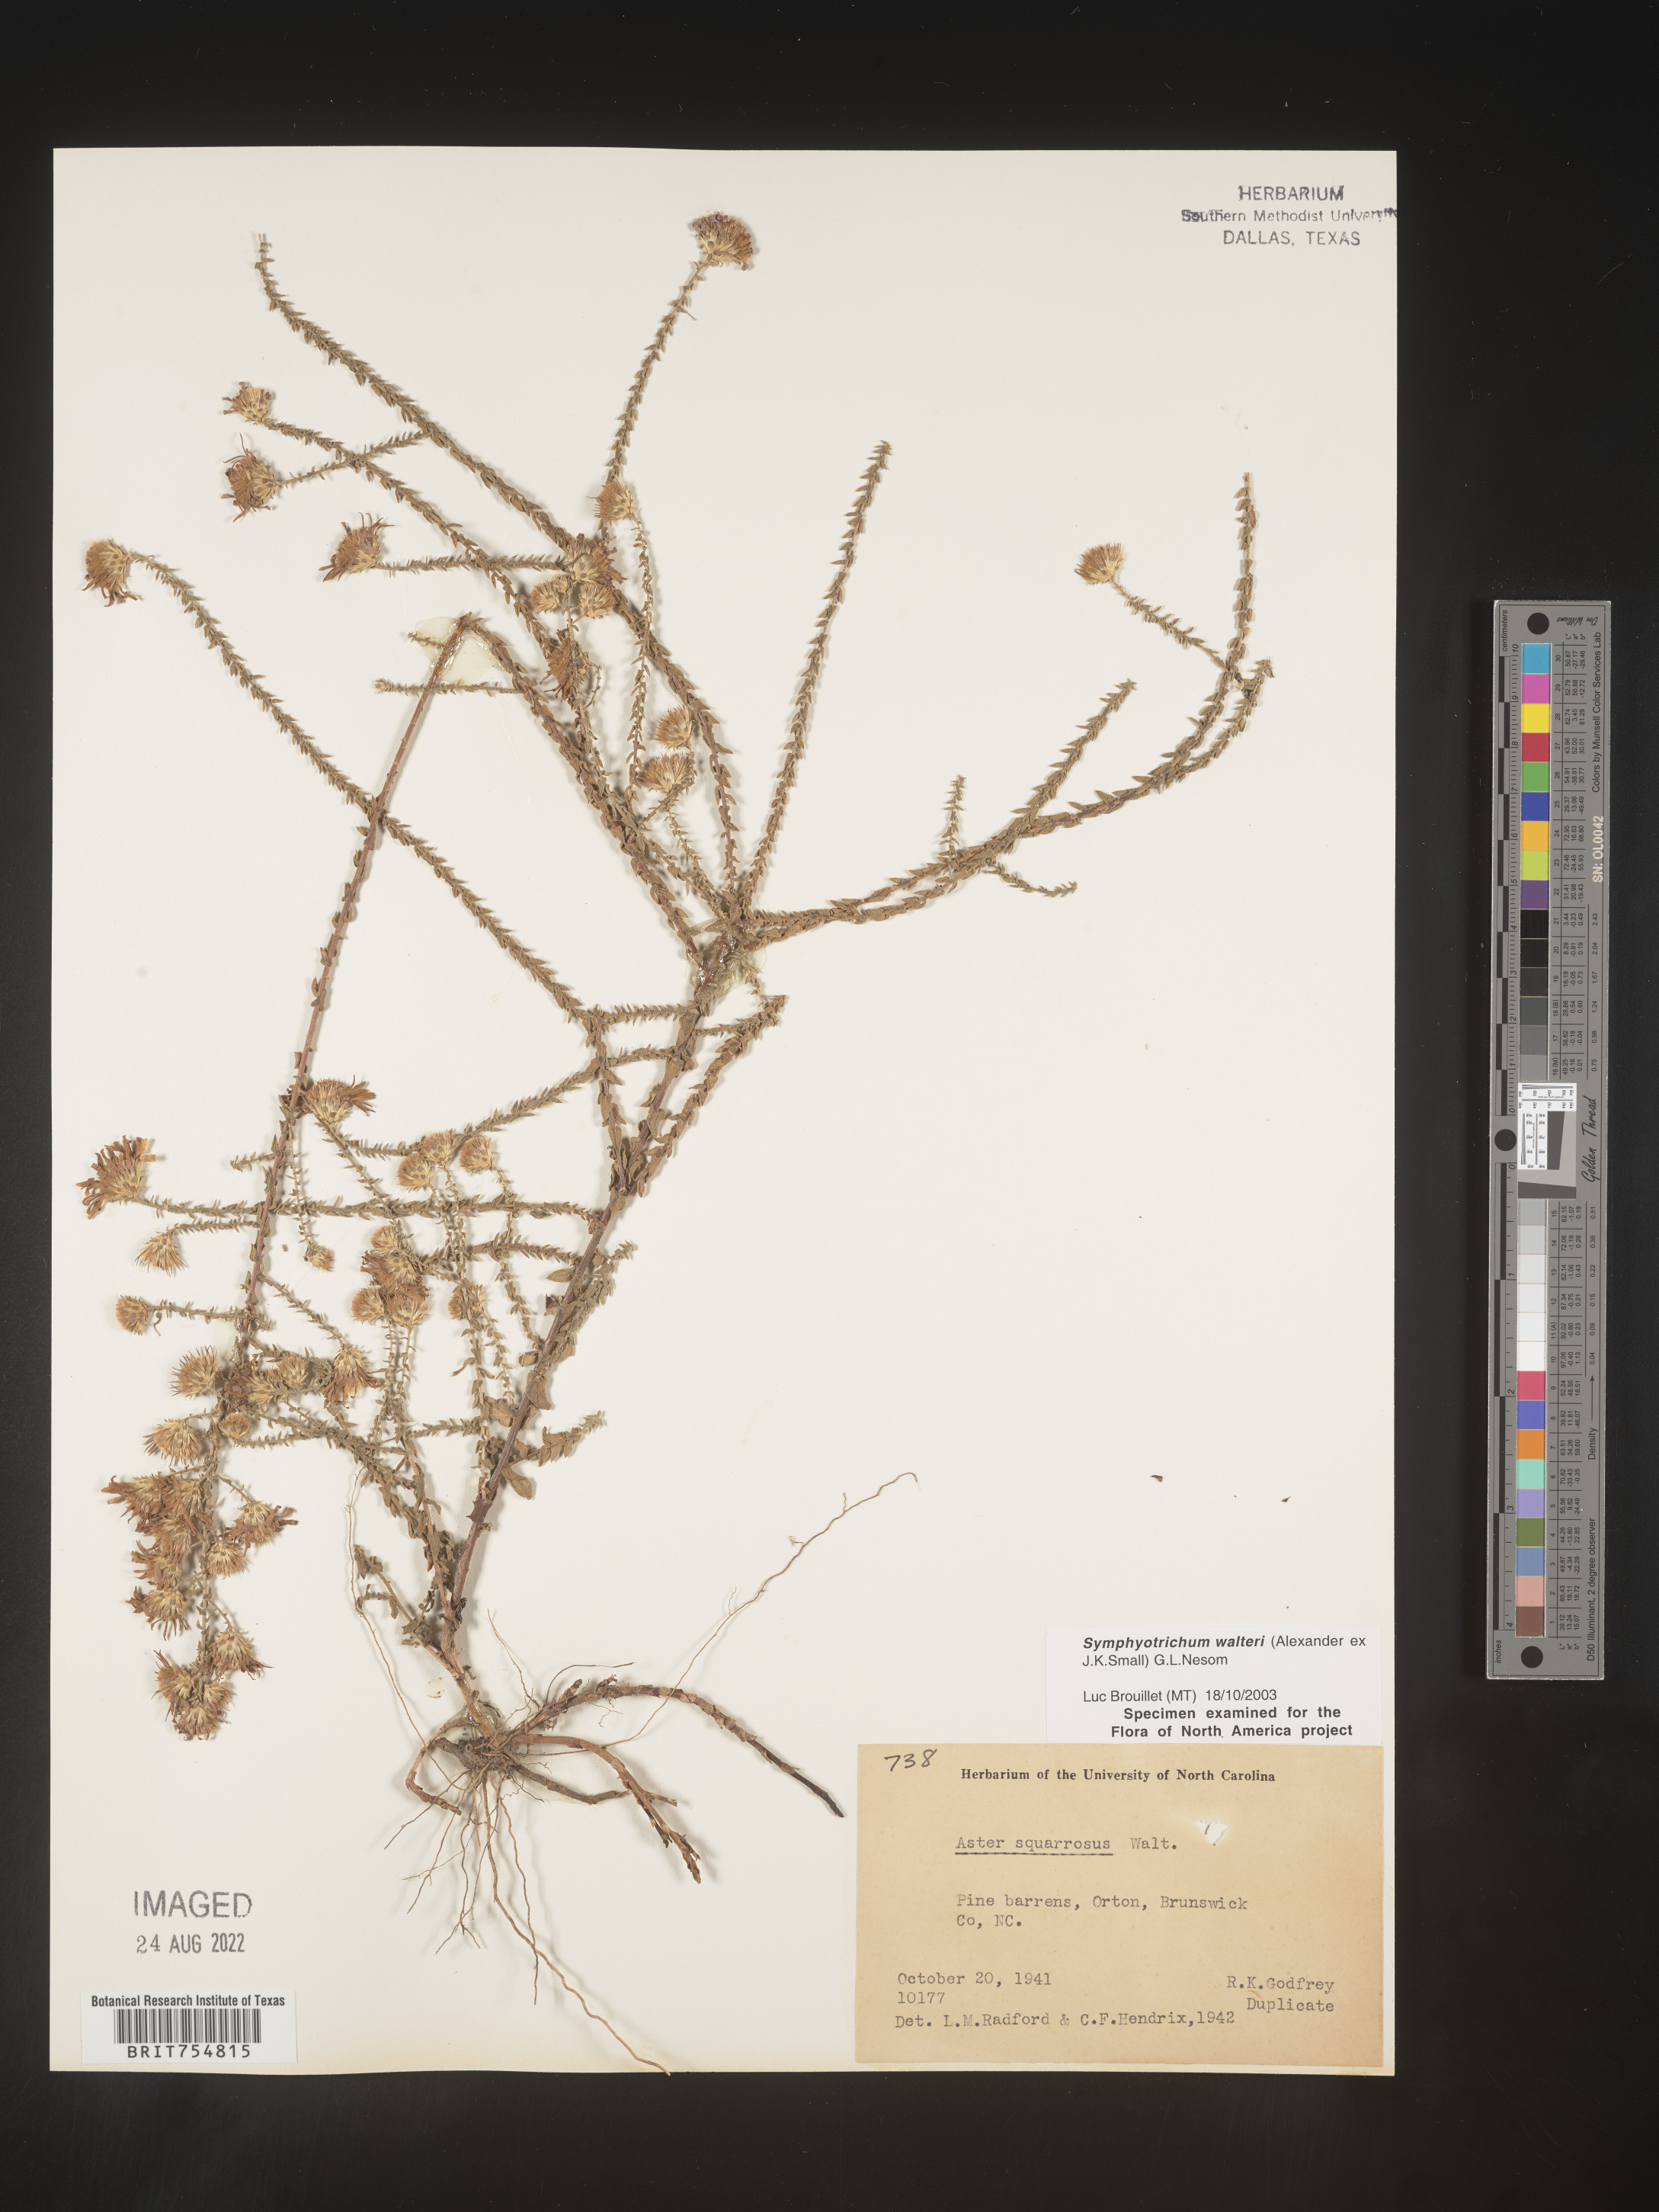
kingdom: Plantae
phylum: Tracheophyta
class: Magnoliopsida
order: Asterales
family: Asteraceae
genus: Symphyotrichum
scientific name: Symphyotrichum walteri
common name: Walter's aster
